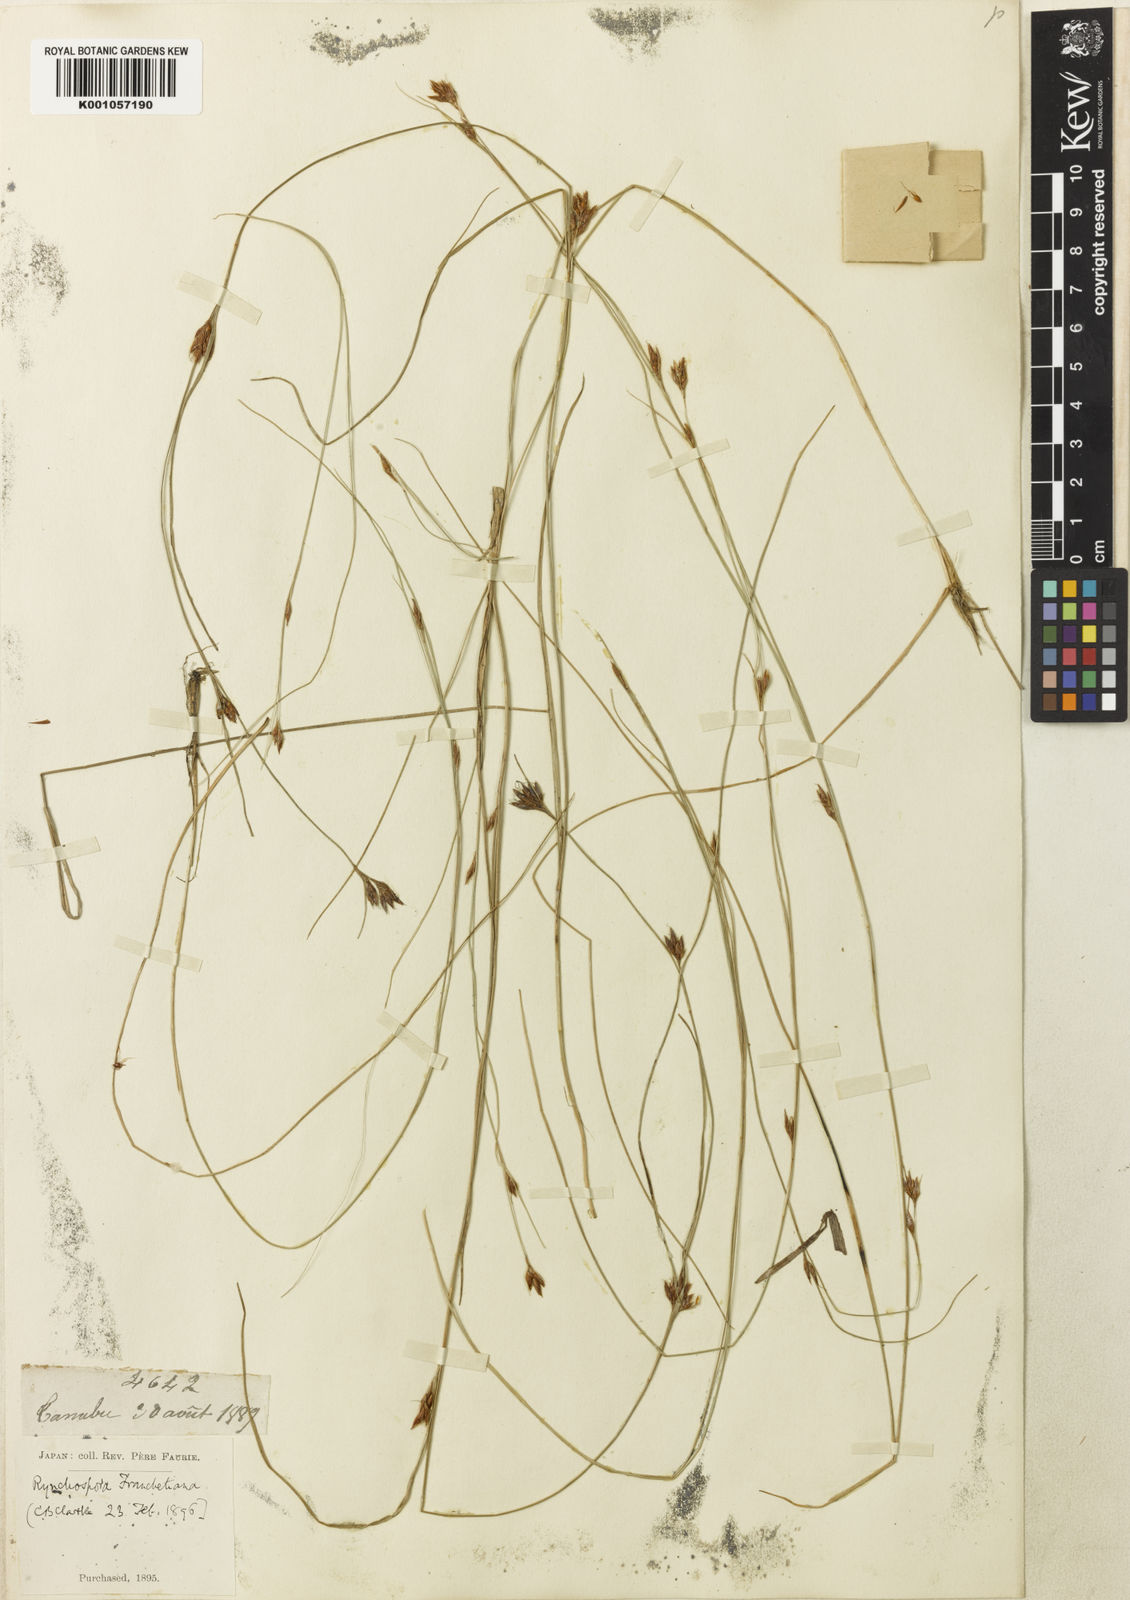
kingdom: Plantae
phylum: Tracheophyta
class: Liliopsida
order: Poales
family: Cyperaceae
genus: Rhynchospora
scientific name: Rhynchospora
